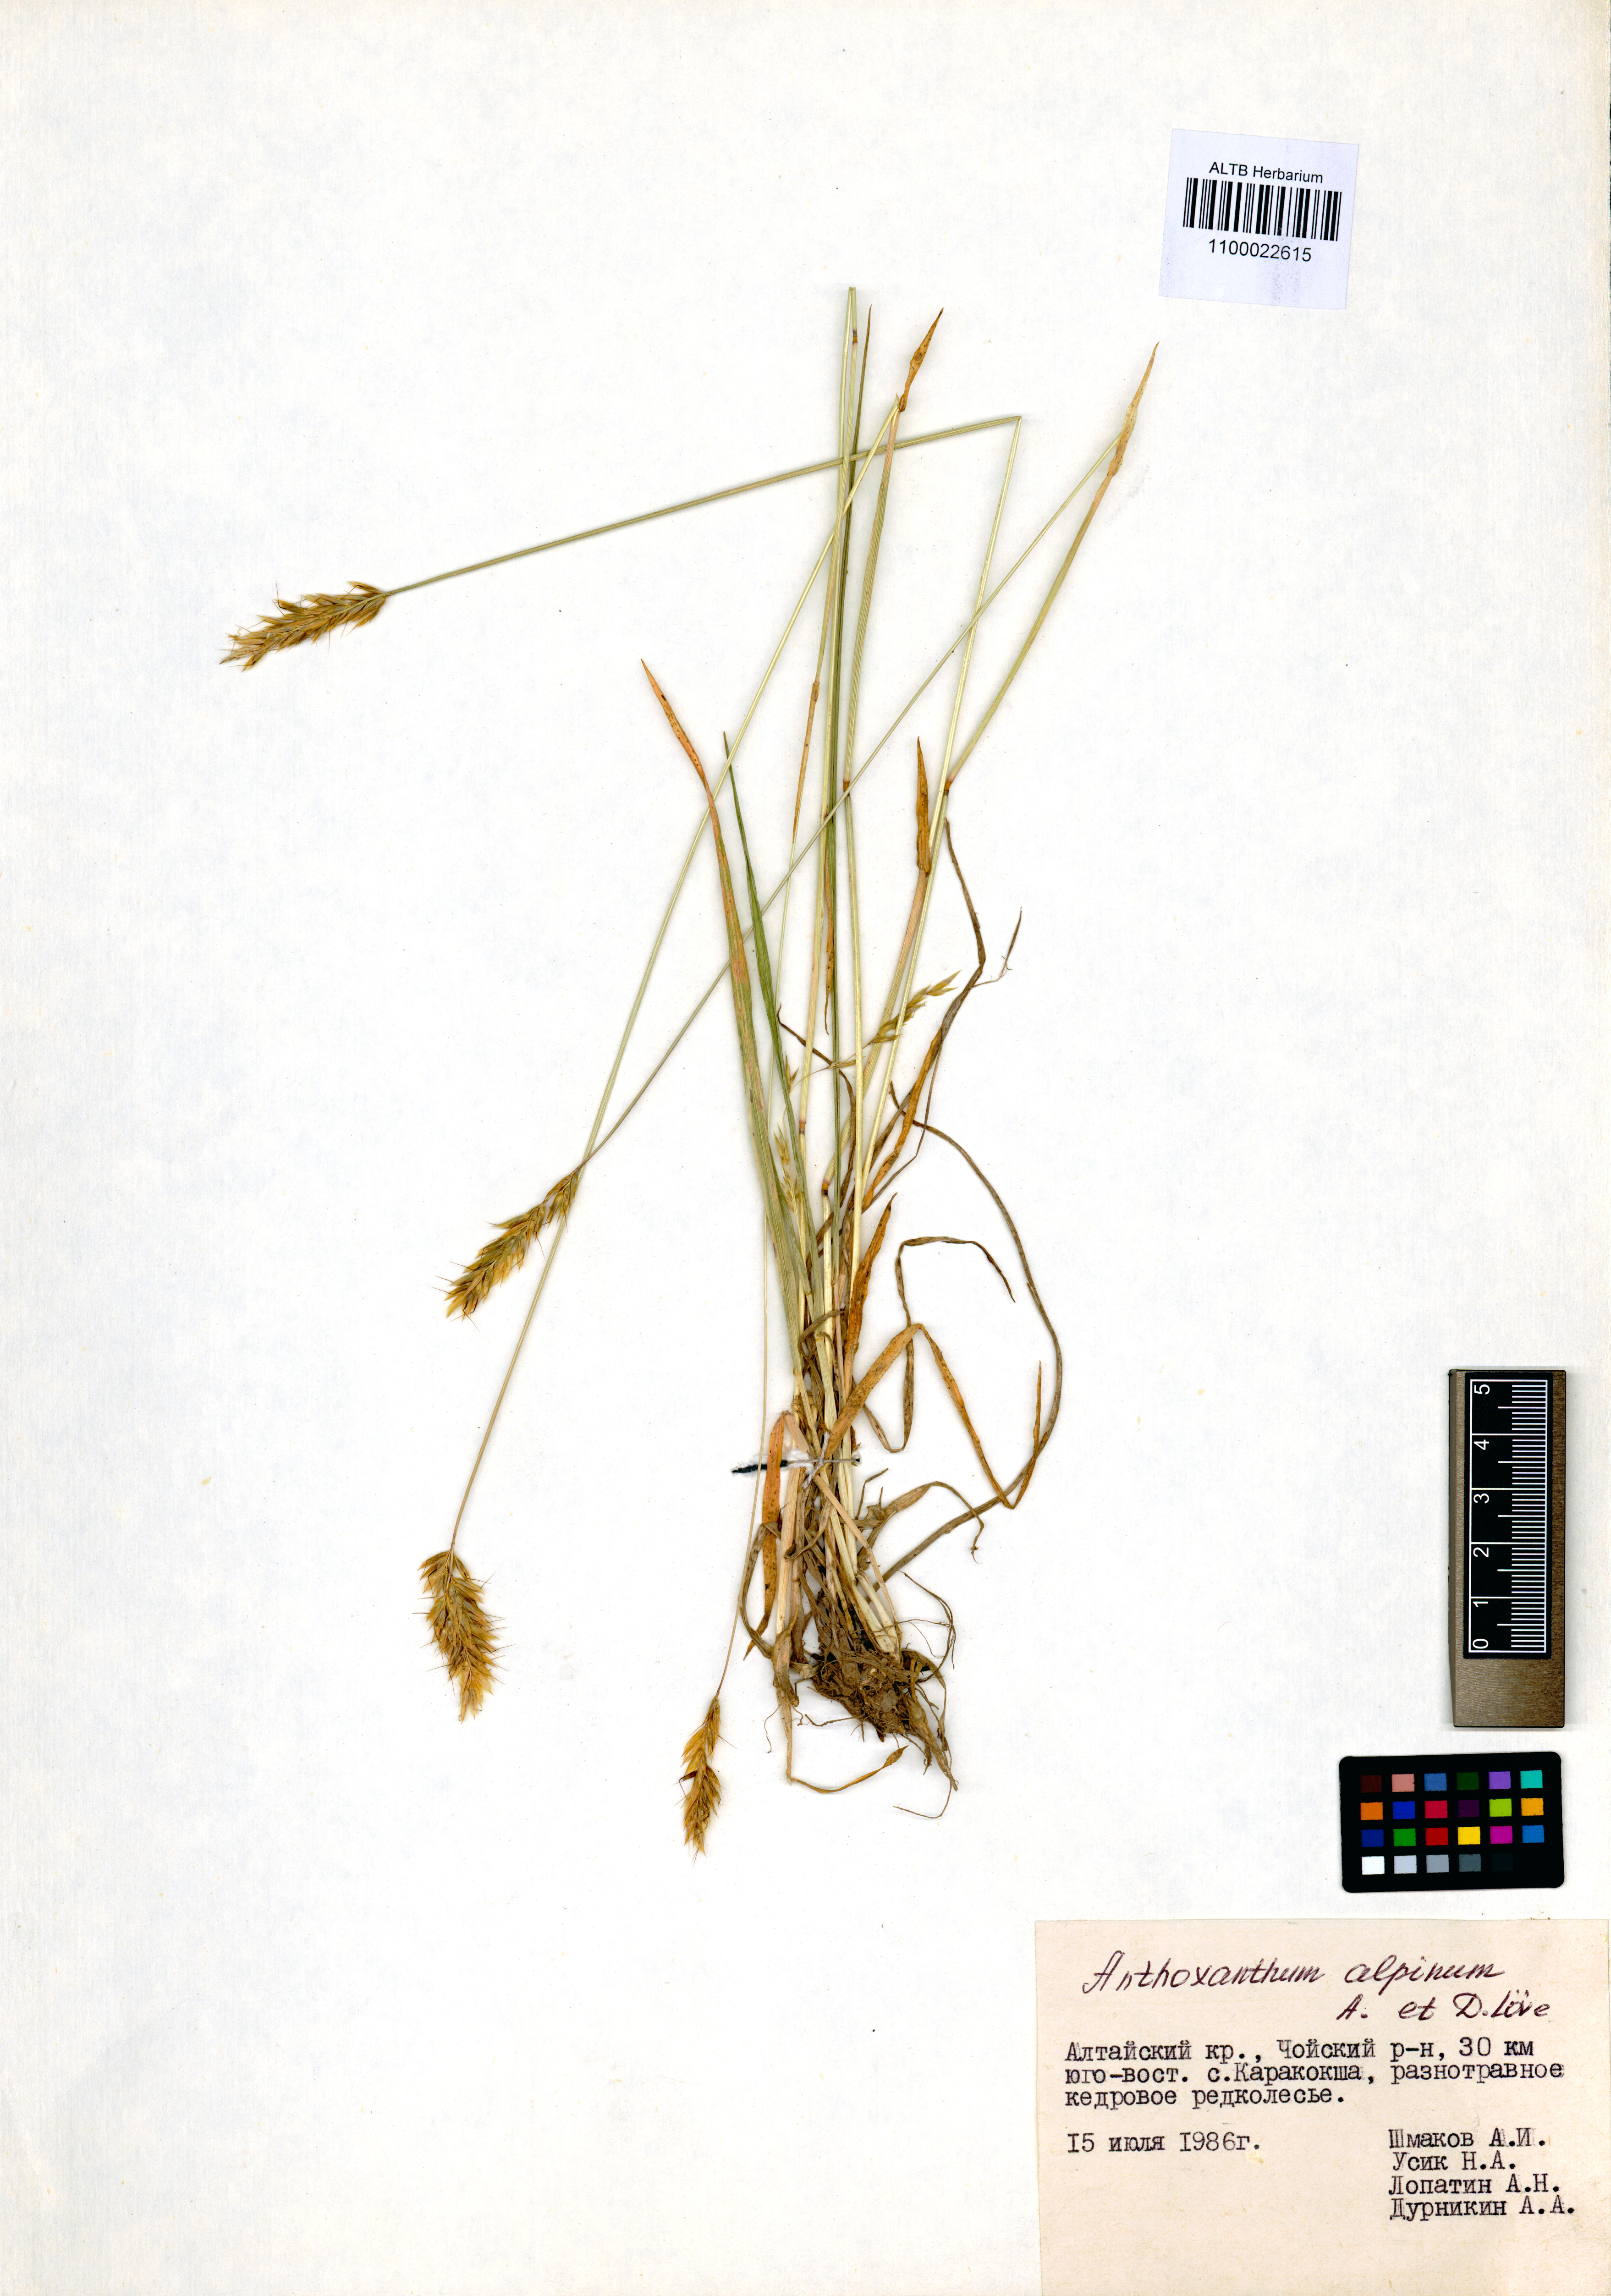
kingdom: Plantae
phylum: Tracheophyta
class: Liliopsida
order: Poales
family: Poaceae
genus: Anthoxanthum
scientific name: Anthoxanthum nipponicum
